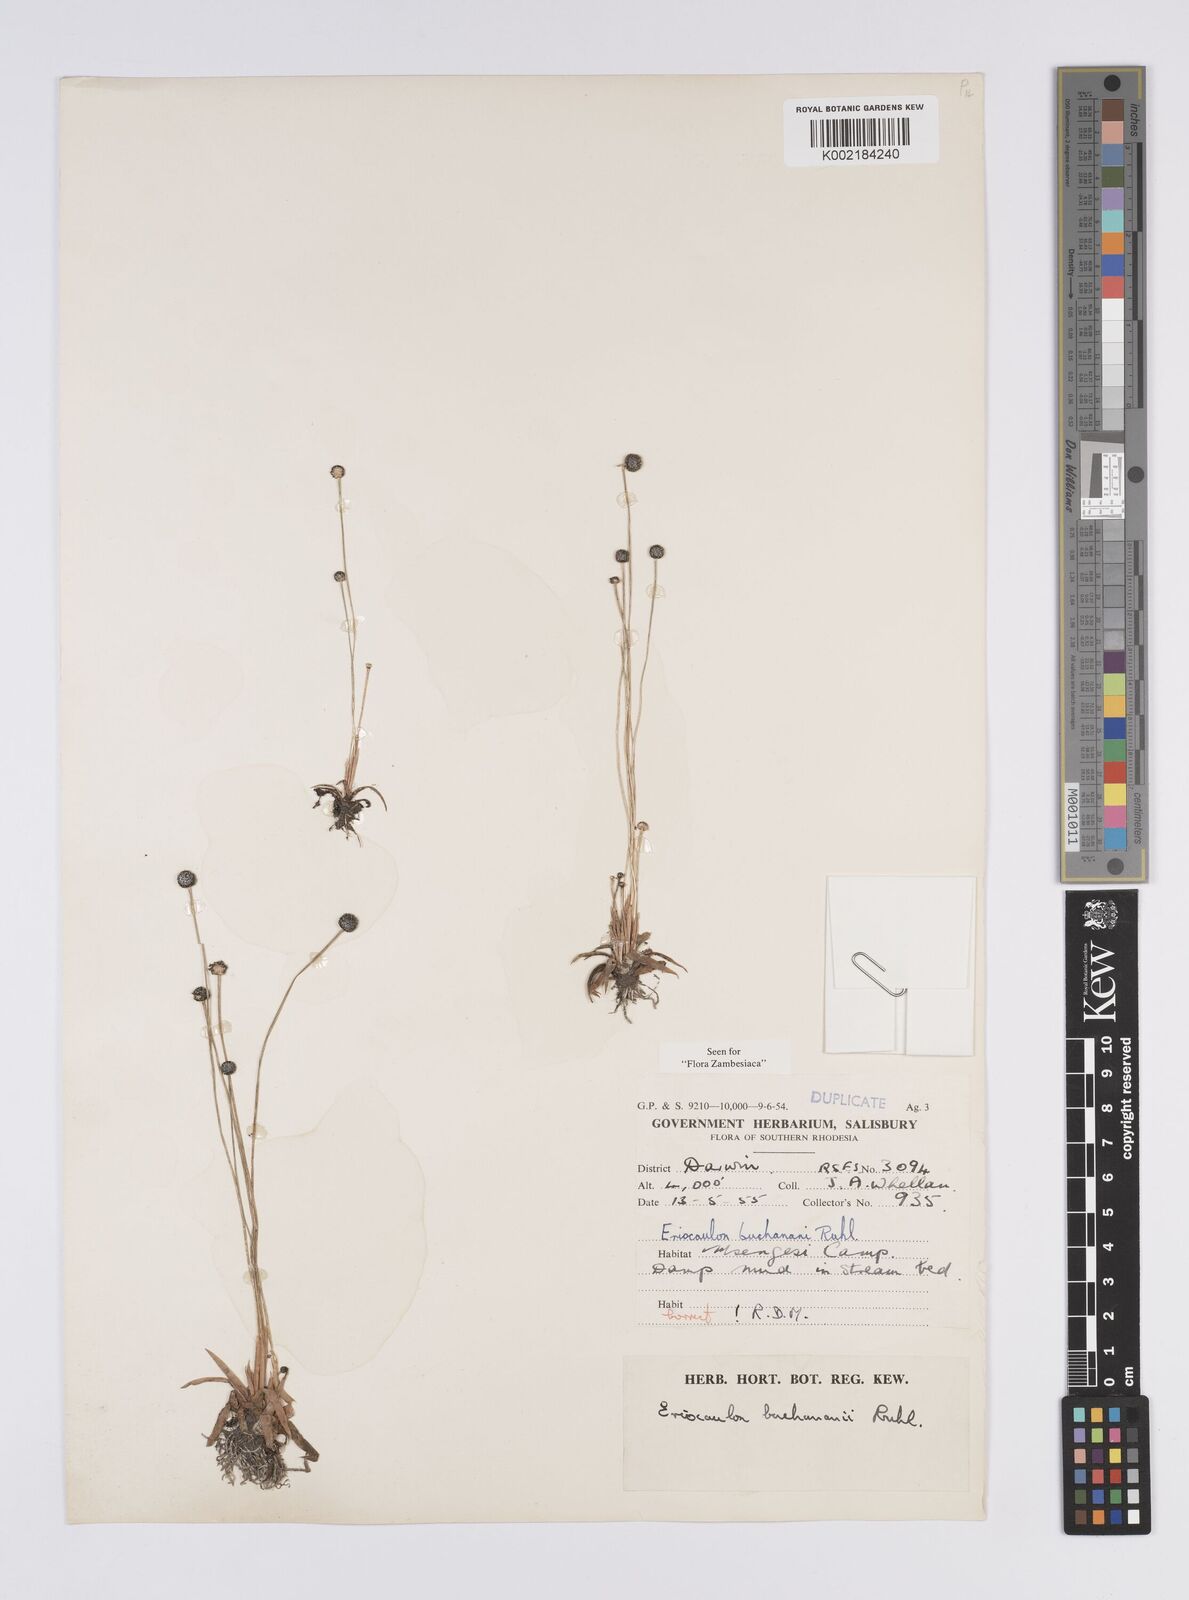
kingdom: Plantae
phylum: Tracheophyta
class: Liliopsida
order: Poales
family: Eriocaulaceae
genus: Eriocaulon
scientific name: Eriocaulon buchananii
